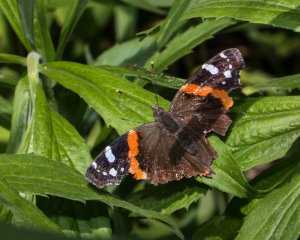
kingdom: Animalia
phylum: Arthropoda
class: Insecta
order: Lepidoptera
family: Nymphalidae
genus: Vanessa
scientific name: Vanessa atalanta
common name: Red Admiral
